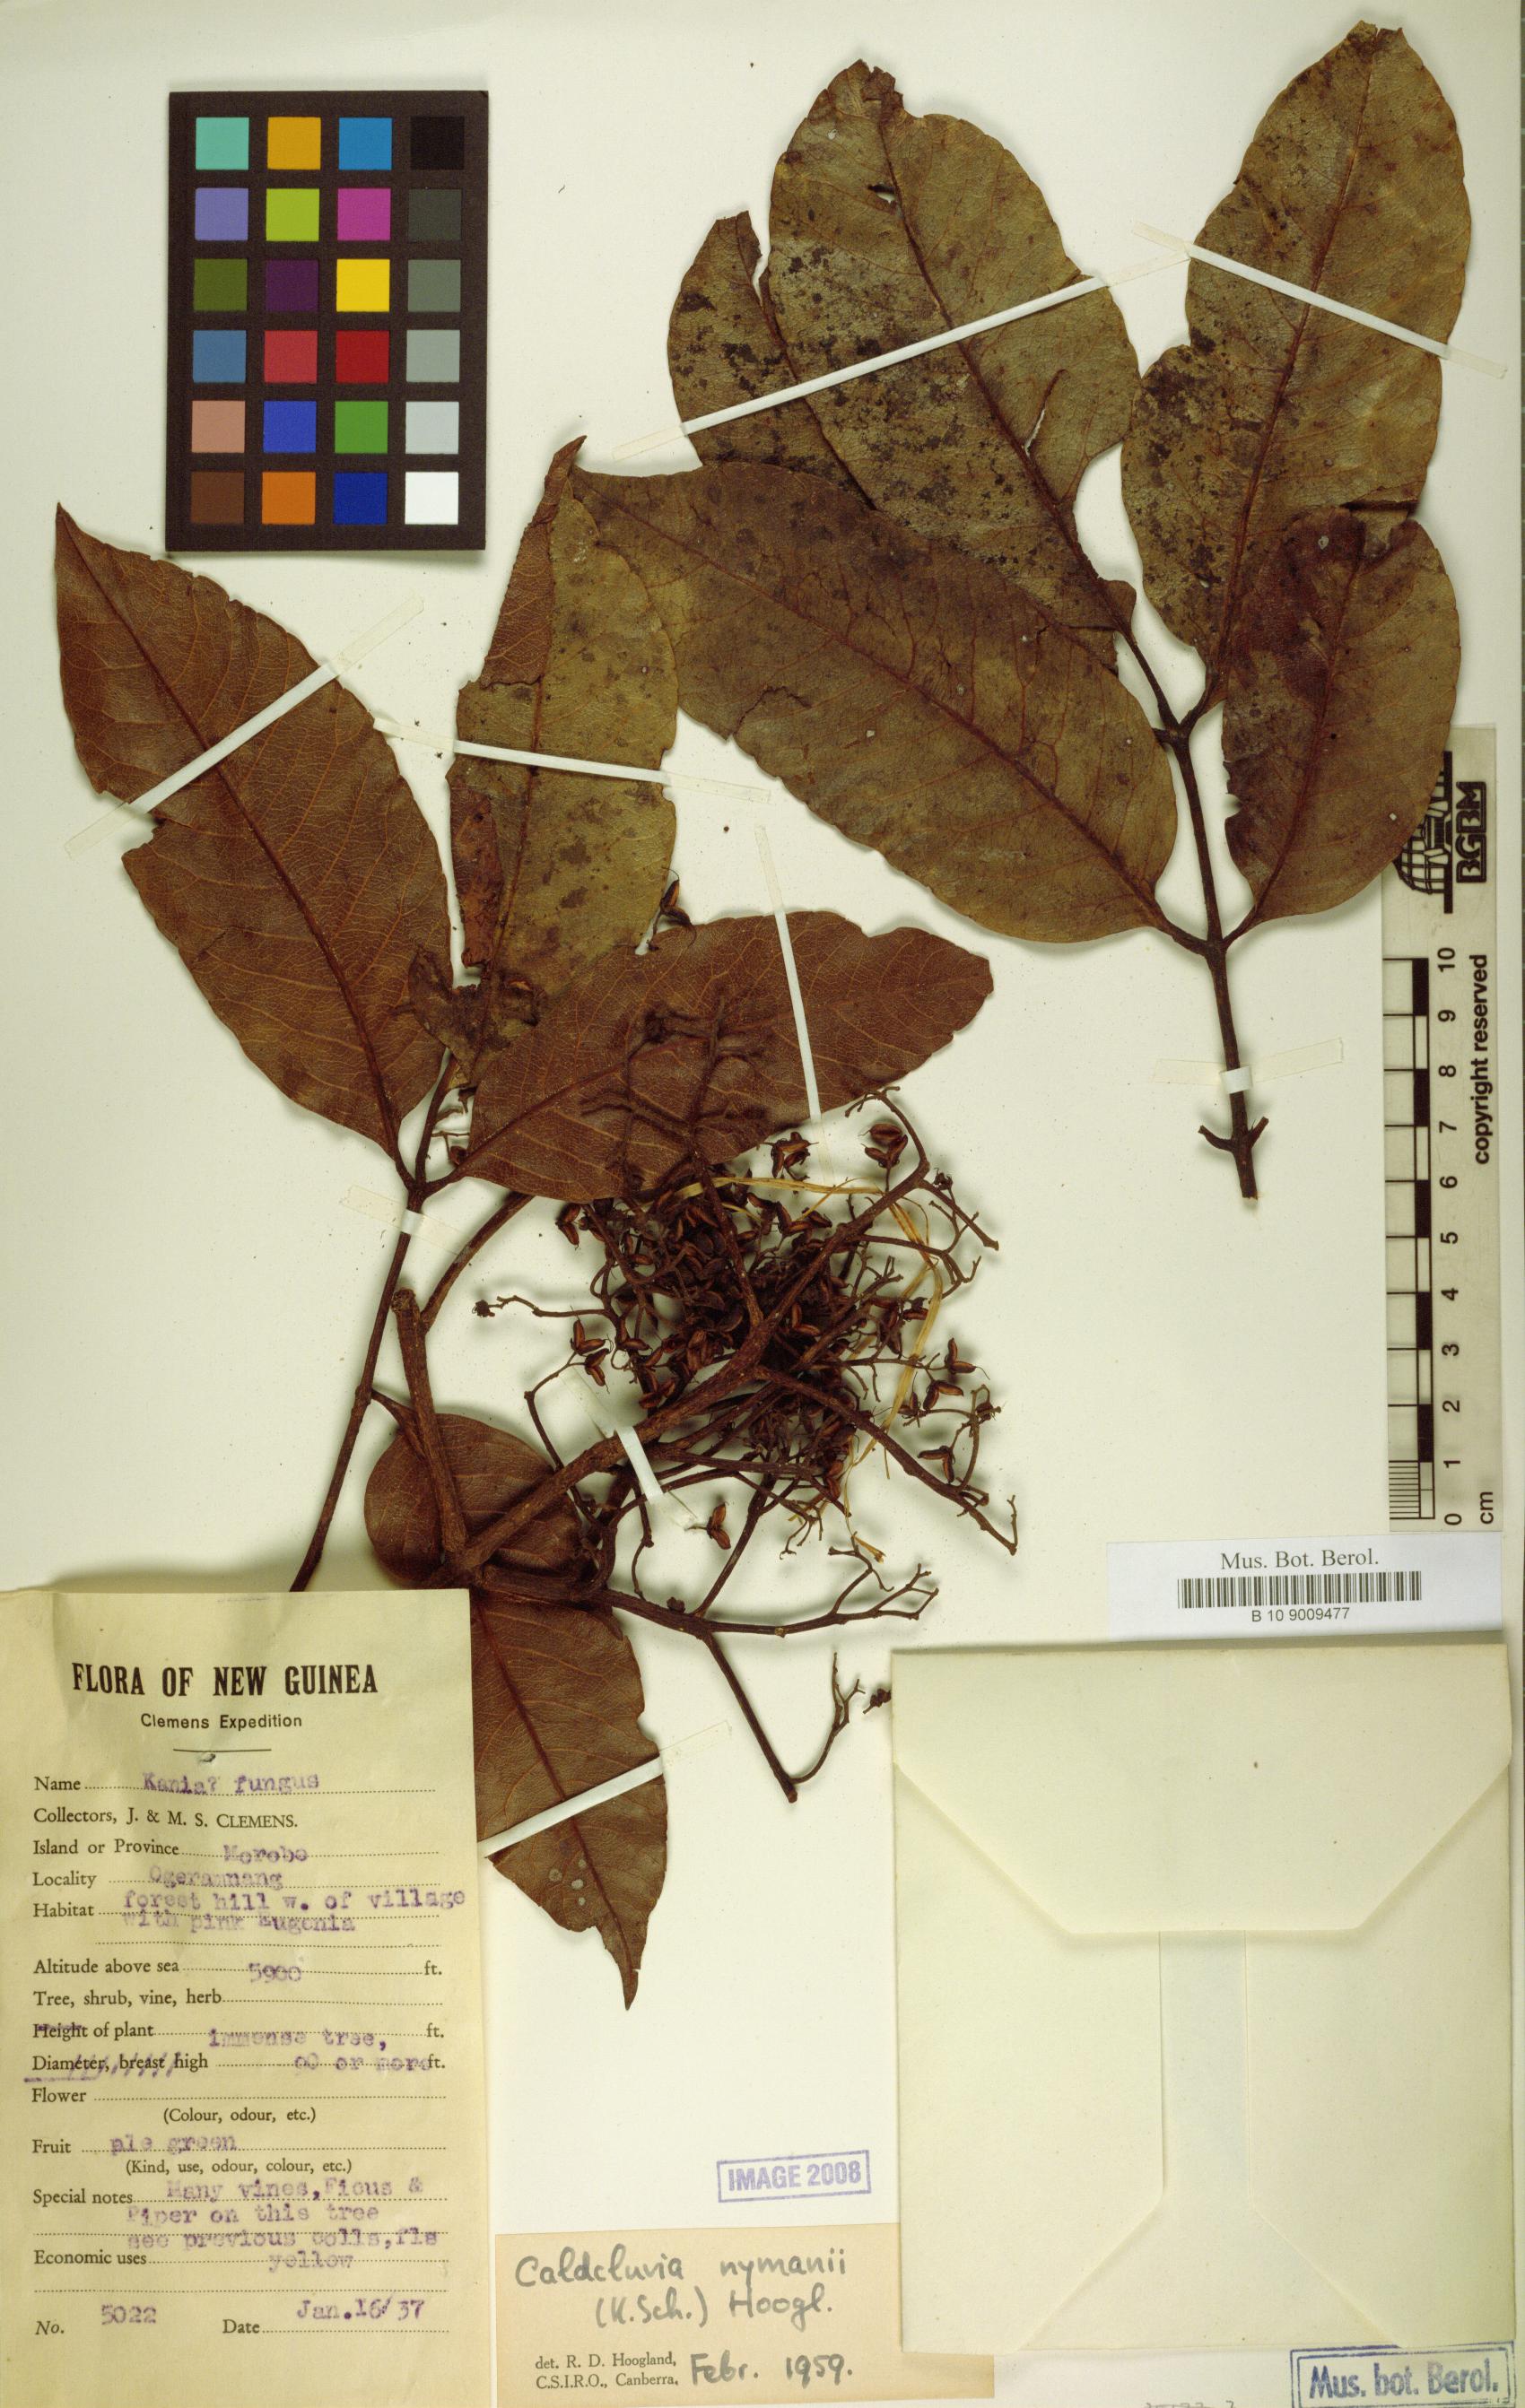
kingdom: Plantae
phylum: Tracheophyta
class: Magnoliopsida
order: Oxalidales
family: Cunoniaceae
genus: Opocunonia
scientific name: Opocunonia nymanii
